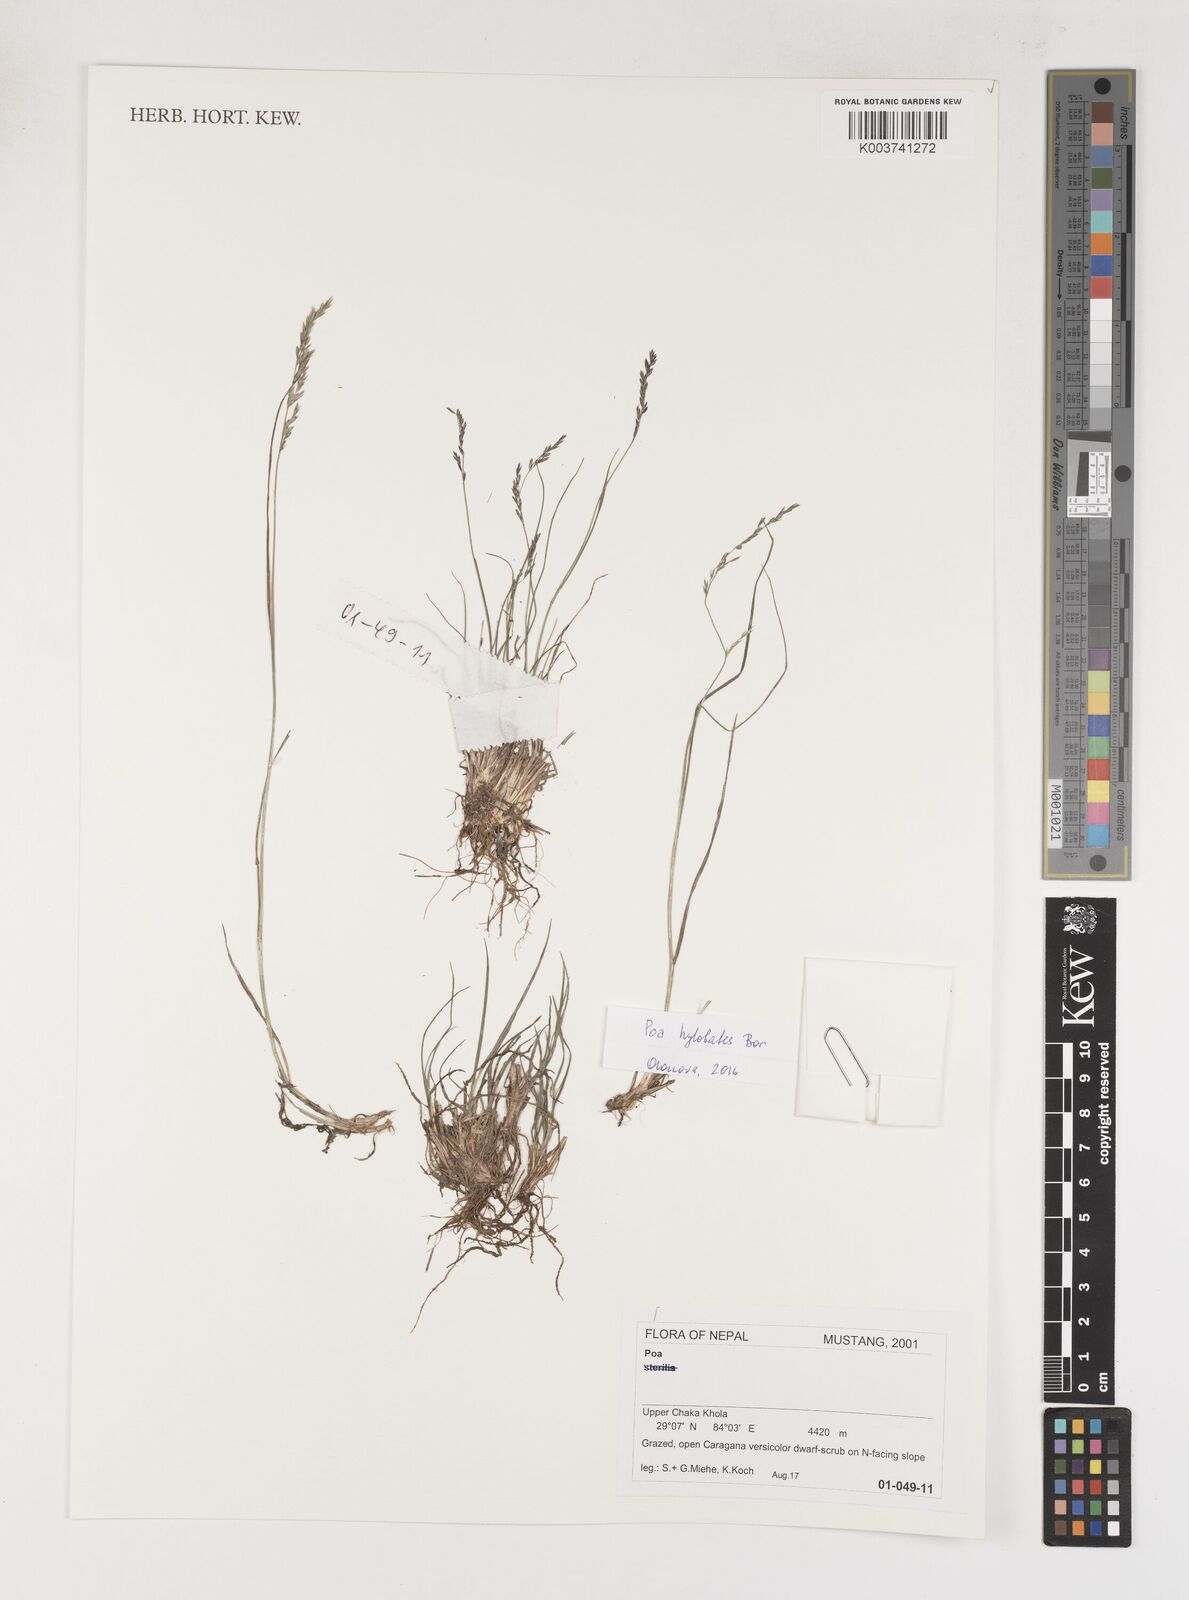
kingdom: Plantae
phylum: Tracheophyta
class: Liliopsida
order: Poales
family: Poaceae
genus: Poa
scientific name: Poa
